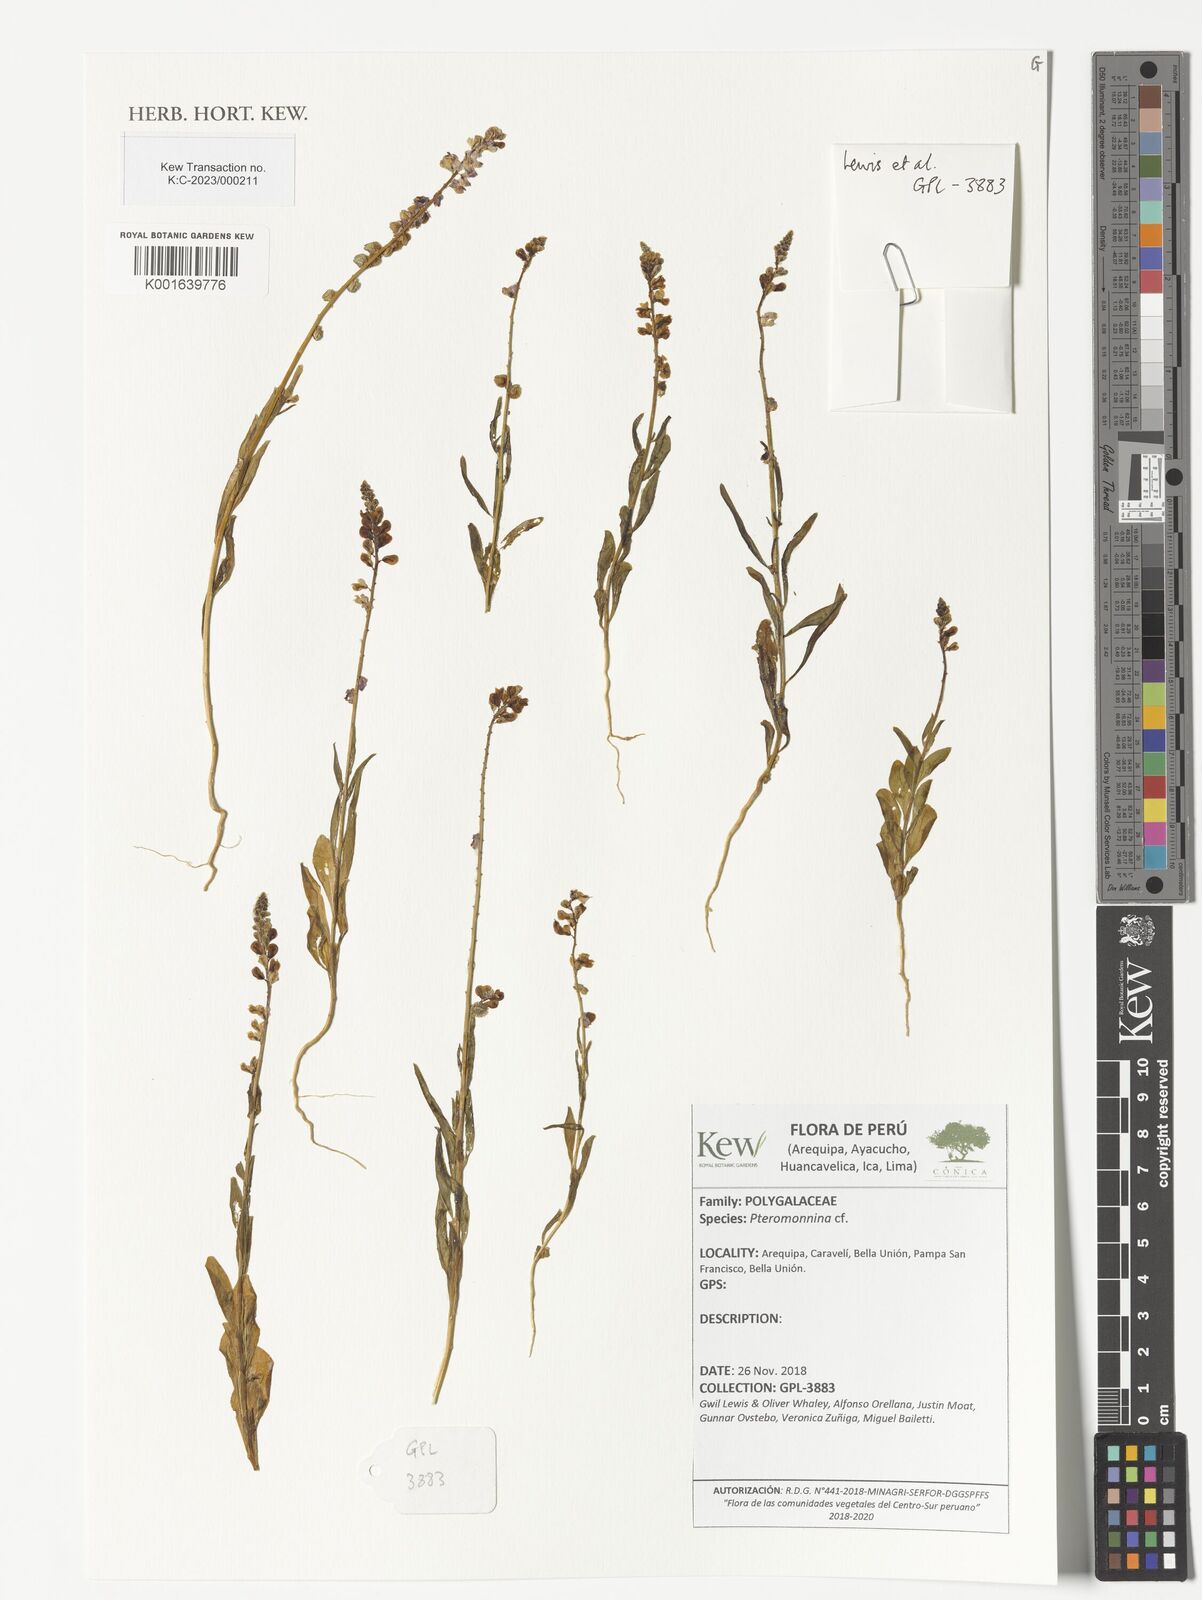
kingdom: Plantae
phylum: Tracheophyta
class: Magnoliopsida
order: Fabales
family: Polygalaceae
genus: Monnina
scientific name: Monnina
